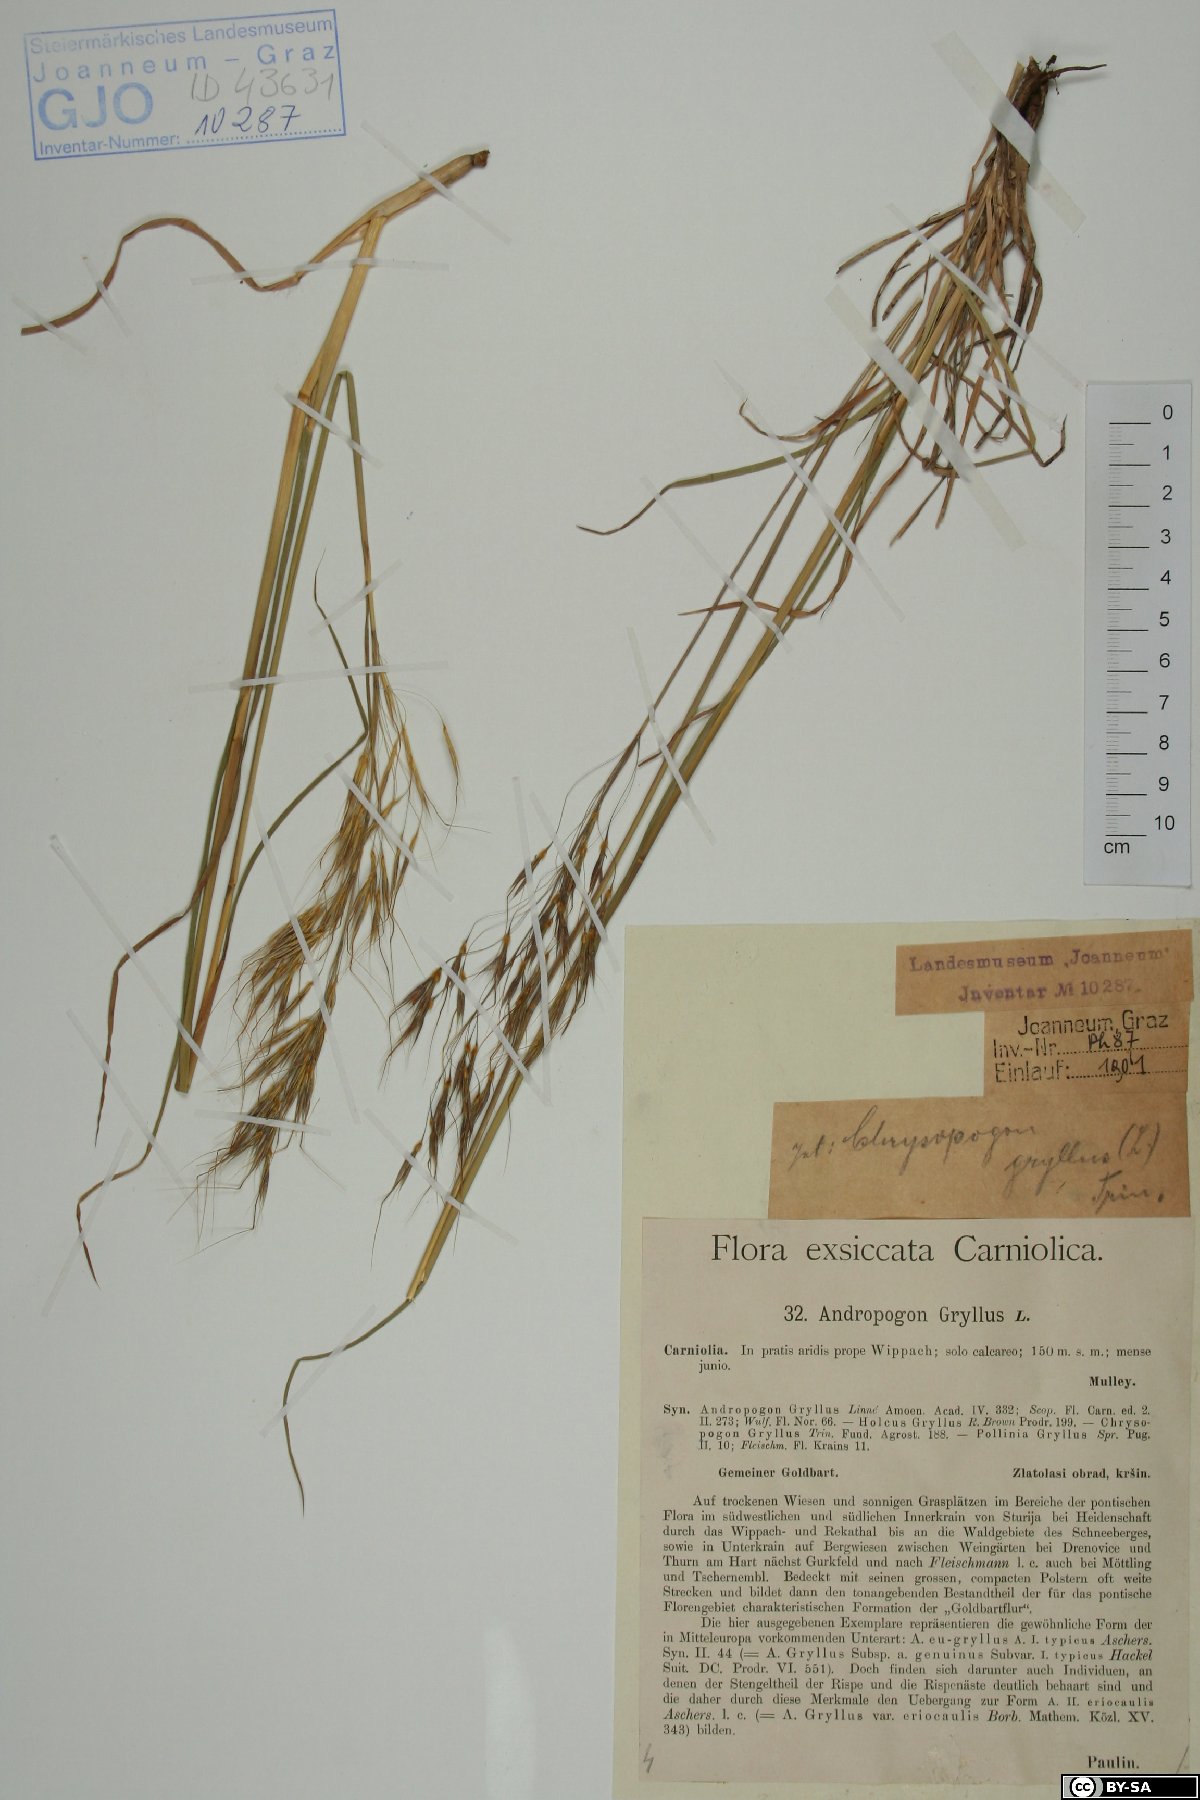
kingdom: Plantae
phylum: Tracheophyta
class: Liliopsida
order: Poales
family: Poaceae
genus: Chrysopogon
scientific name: Chrysopogon gryllus
